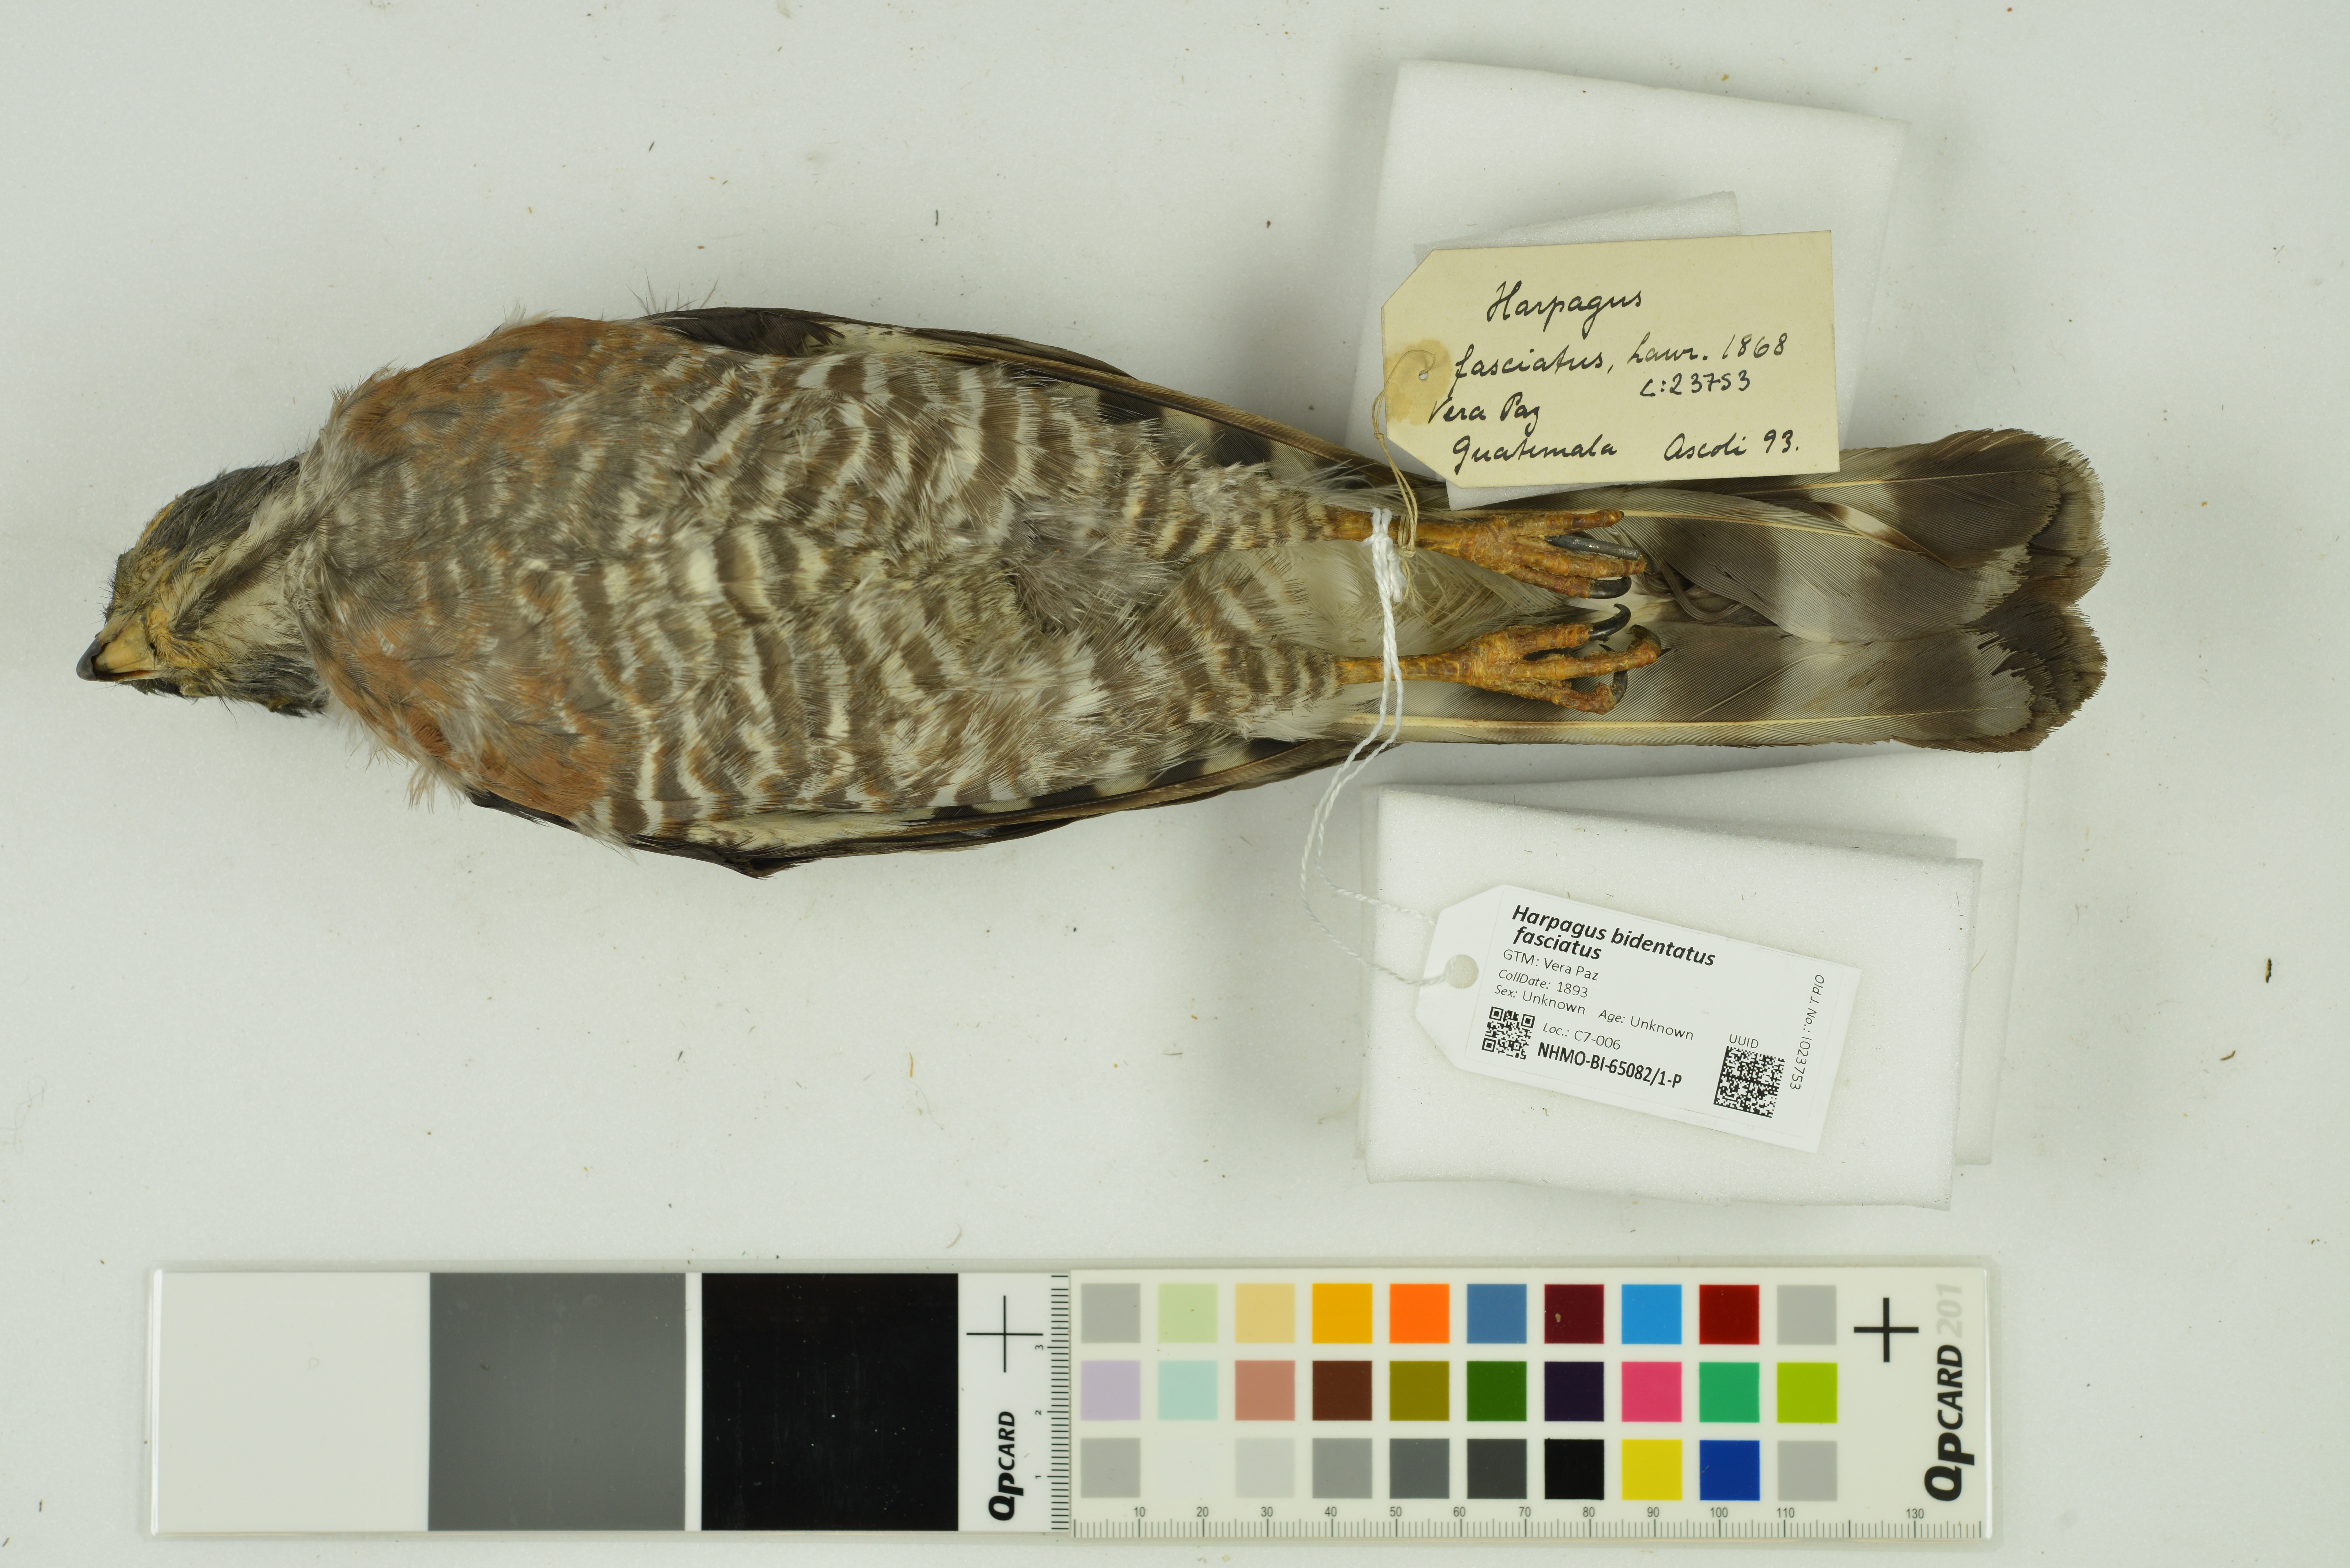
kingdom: Animalia
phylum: Chordata
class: Aves
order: Accipitriformes
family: Accipitridae
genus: Harpagus
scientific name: Harpagus bidentatus
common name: Double-toothed kite
